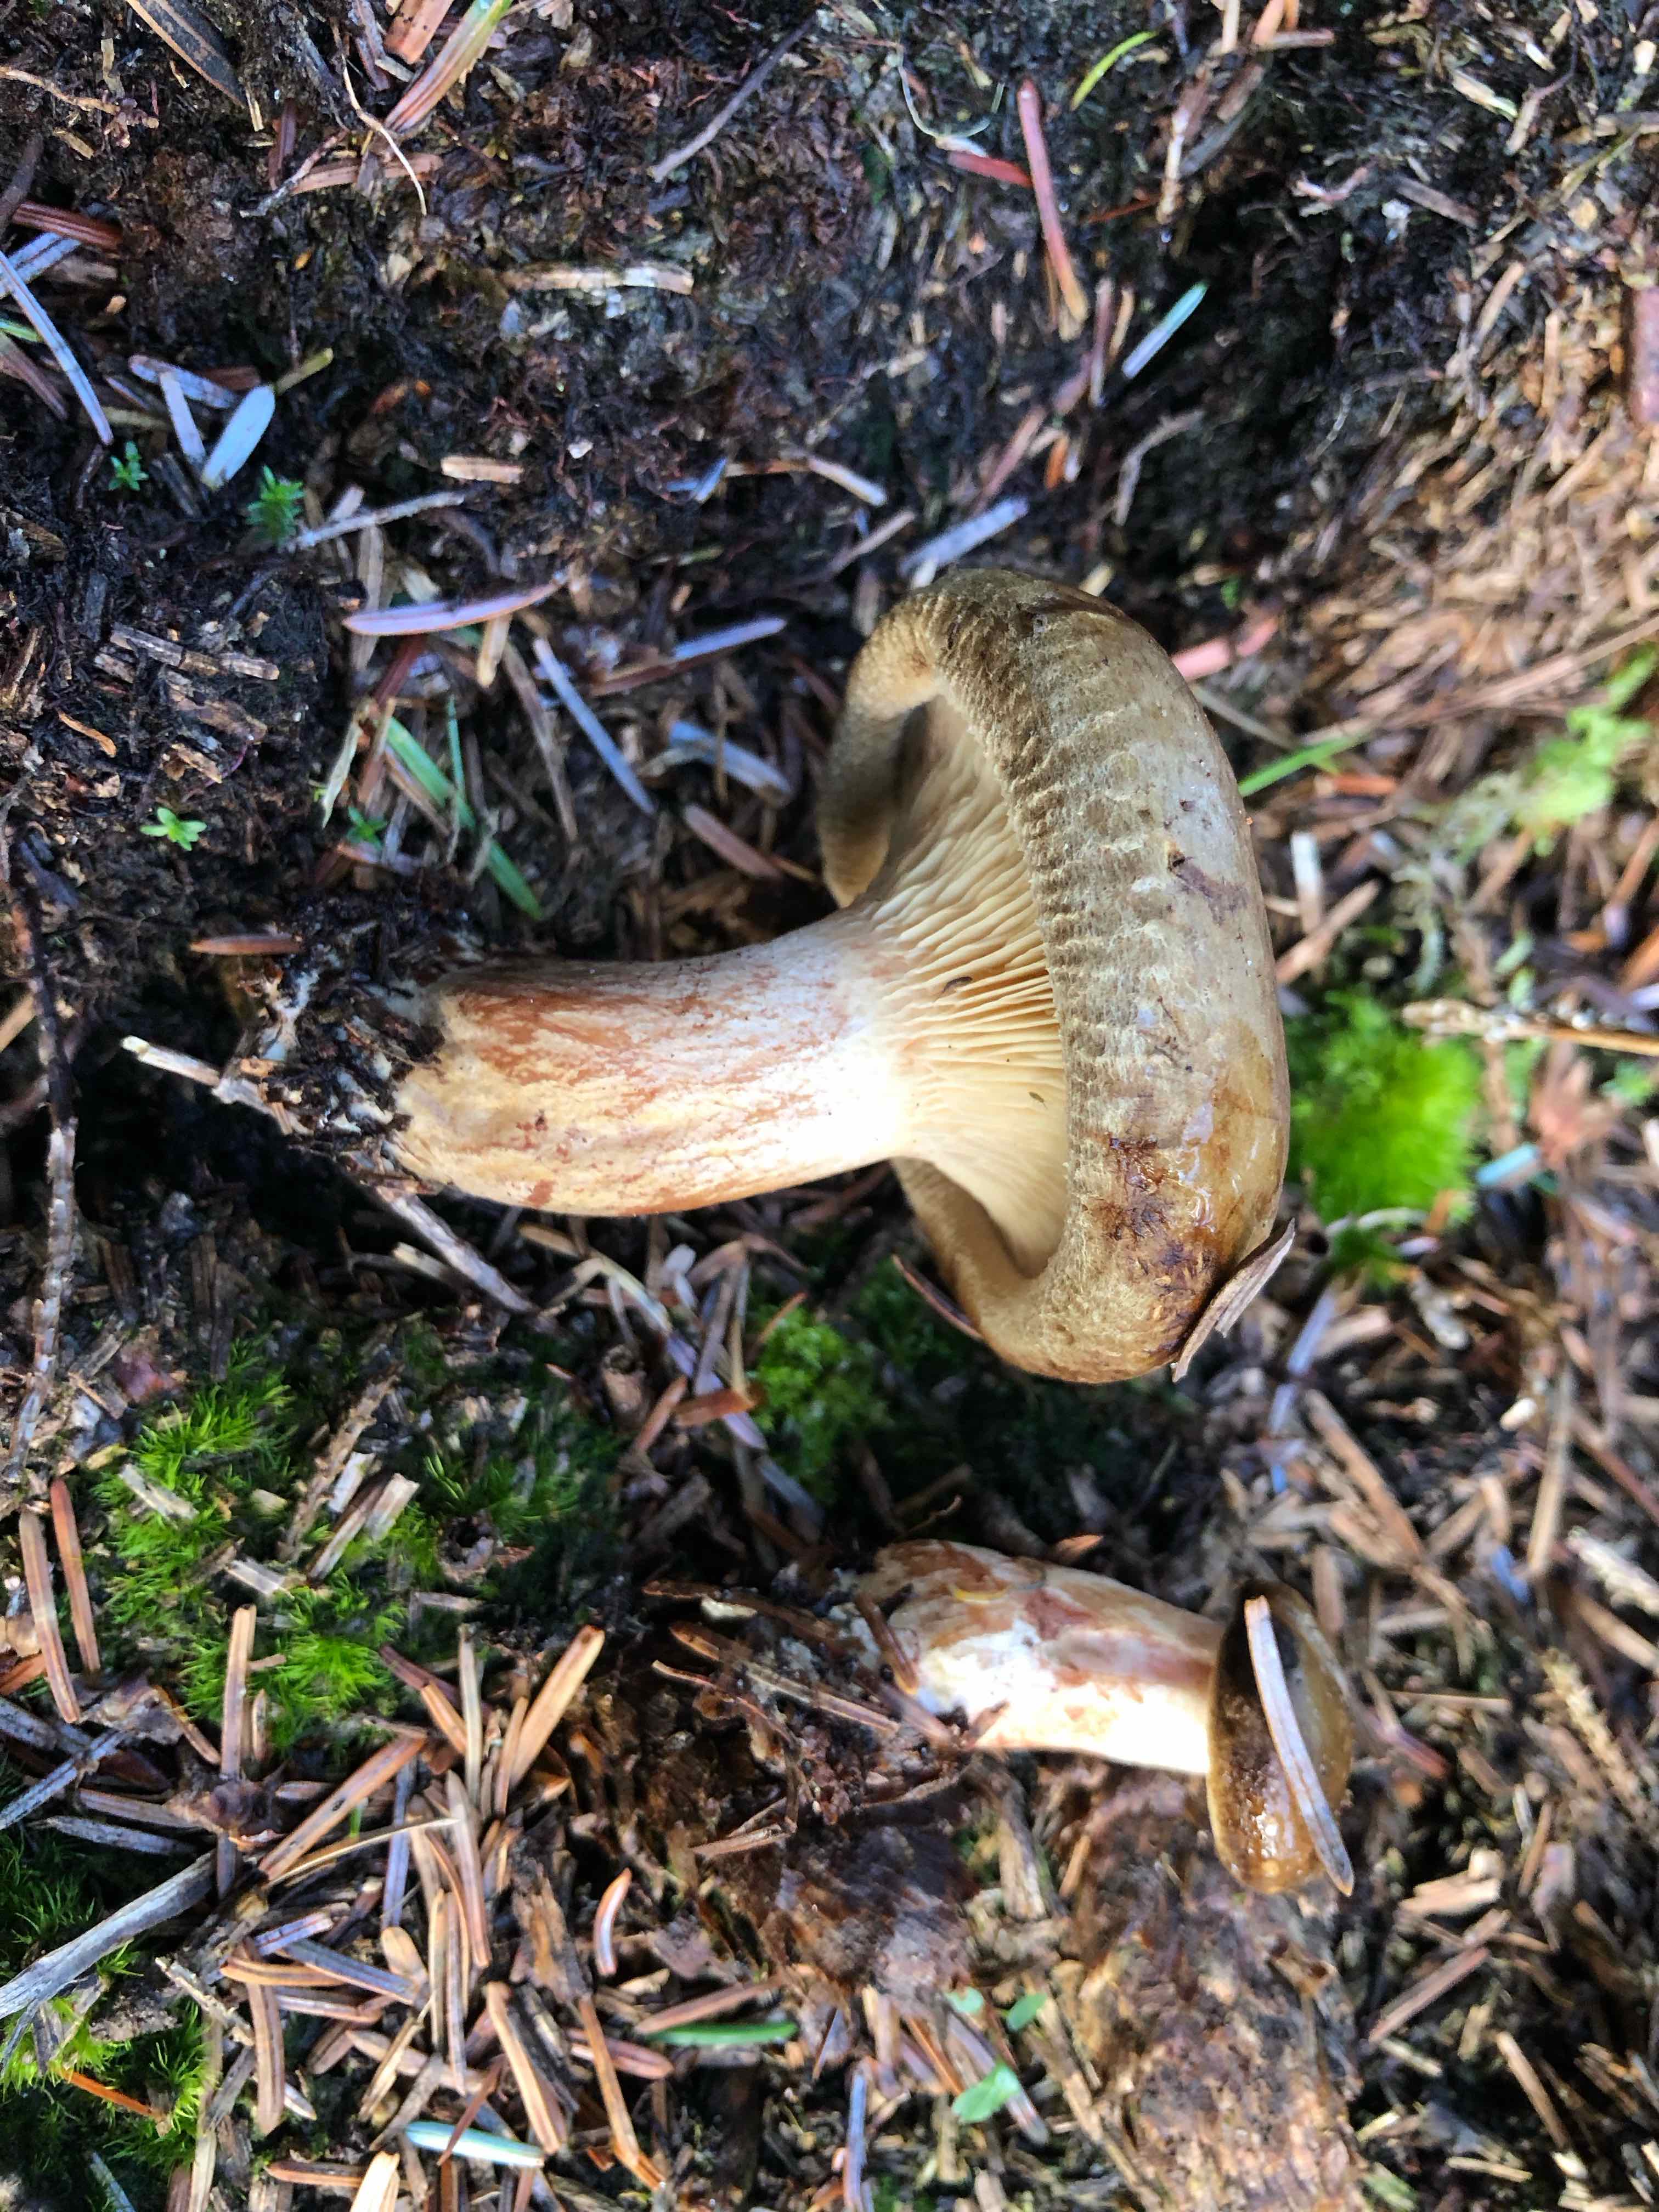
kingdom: Fungi
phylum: Basidiomycota
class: Agaricomycetes
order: Boletales
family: Paxillaceae
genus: Paxillus
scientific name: Paxillus involutus
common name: almindelig netbladhat
